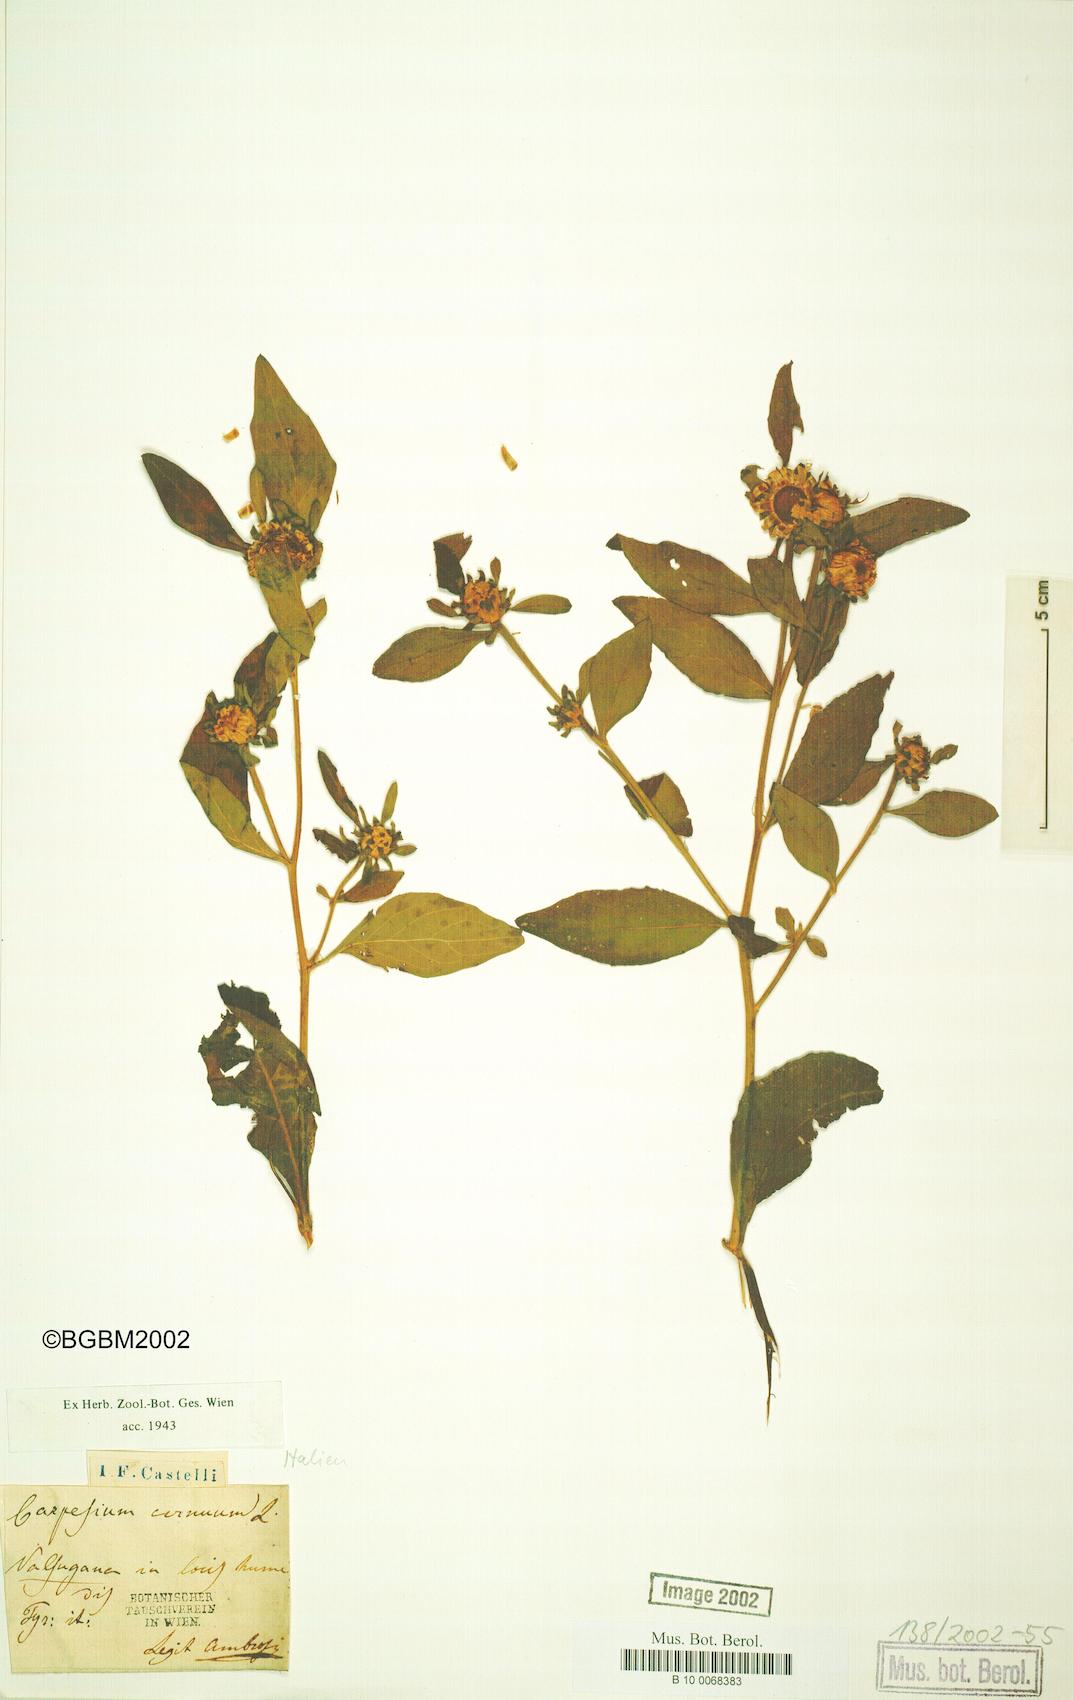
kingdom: Plantae
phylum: Tracheophyta
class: Magnoliopsida
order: Asterales
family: Asteraceae
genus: Carpesium
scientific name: Carpesium cernuum
